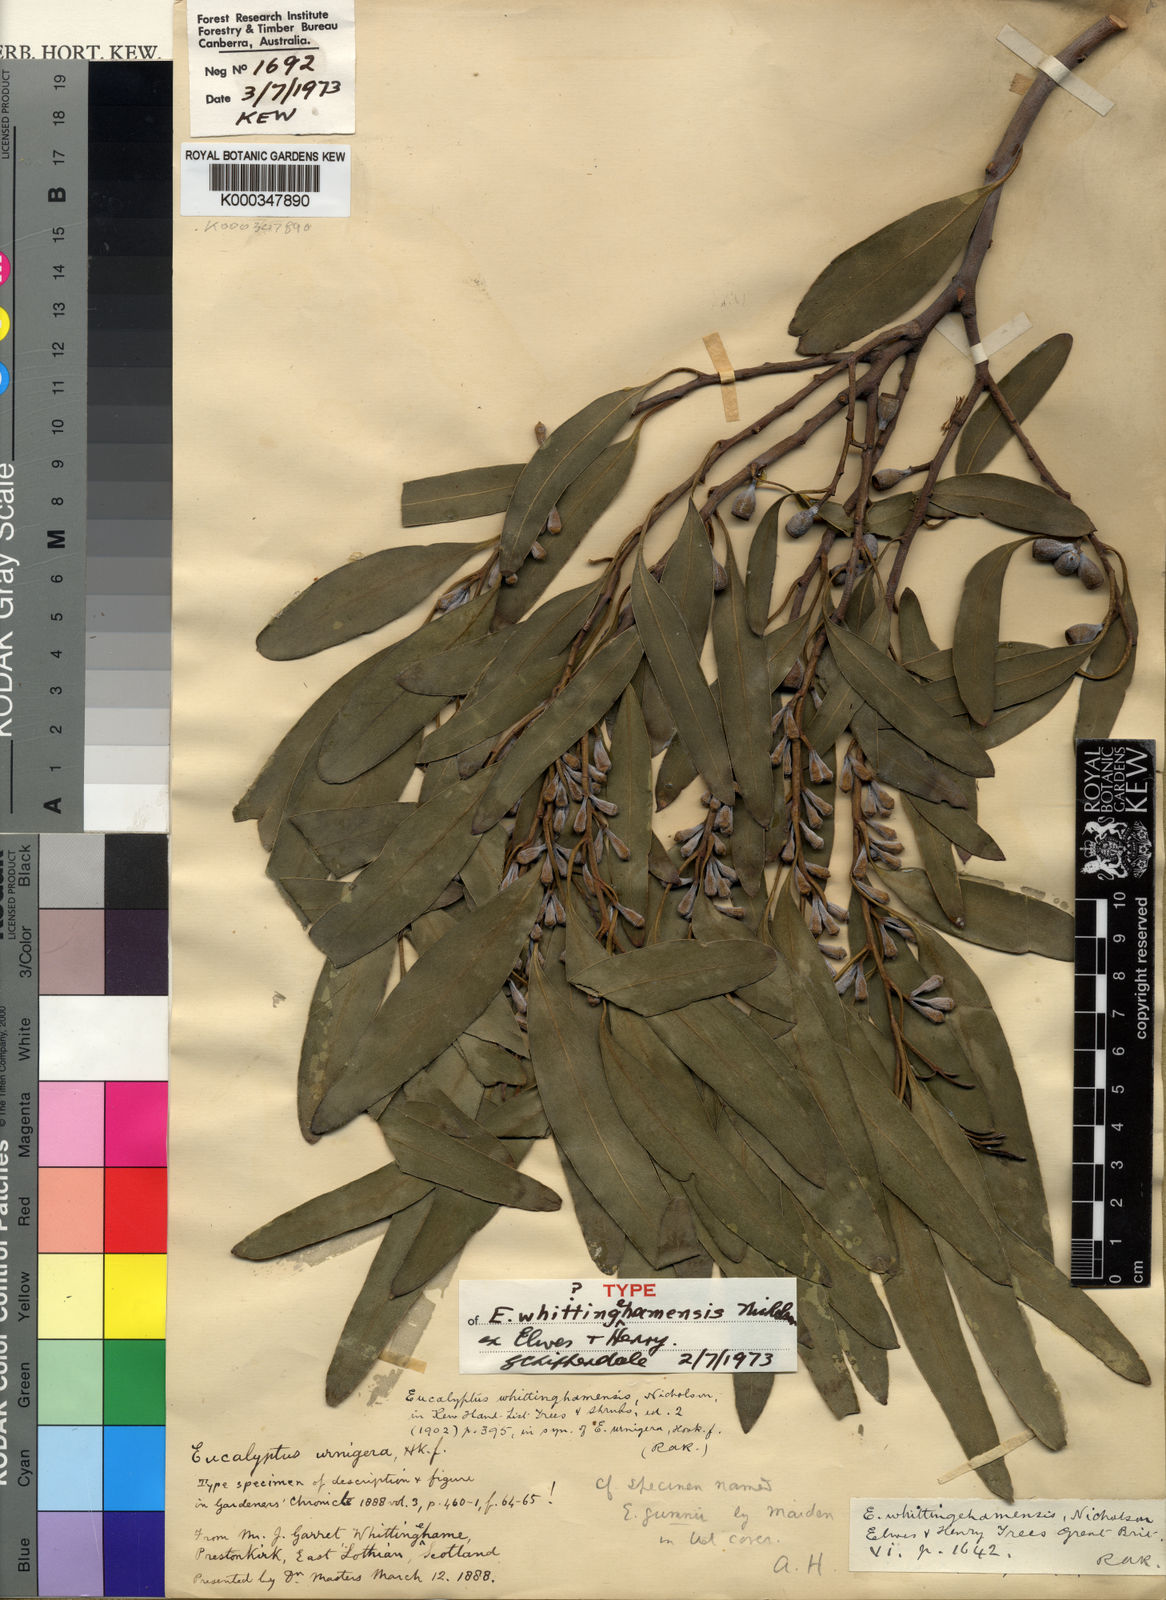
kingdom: Plantae
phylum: Tracheophyta
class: Magnoliopsida
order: Myrtales
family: Myrtaceae
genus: Eucalyptus
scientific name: Eucalyptus gunnii
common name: Cider gum
